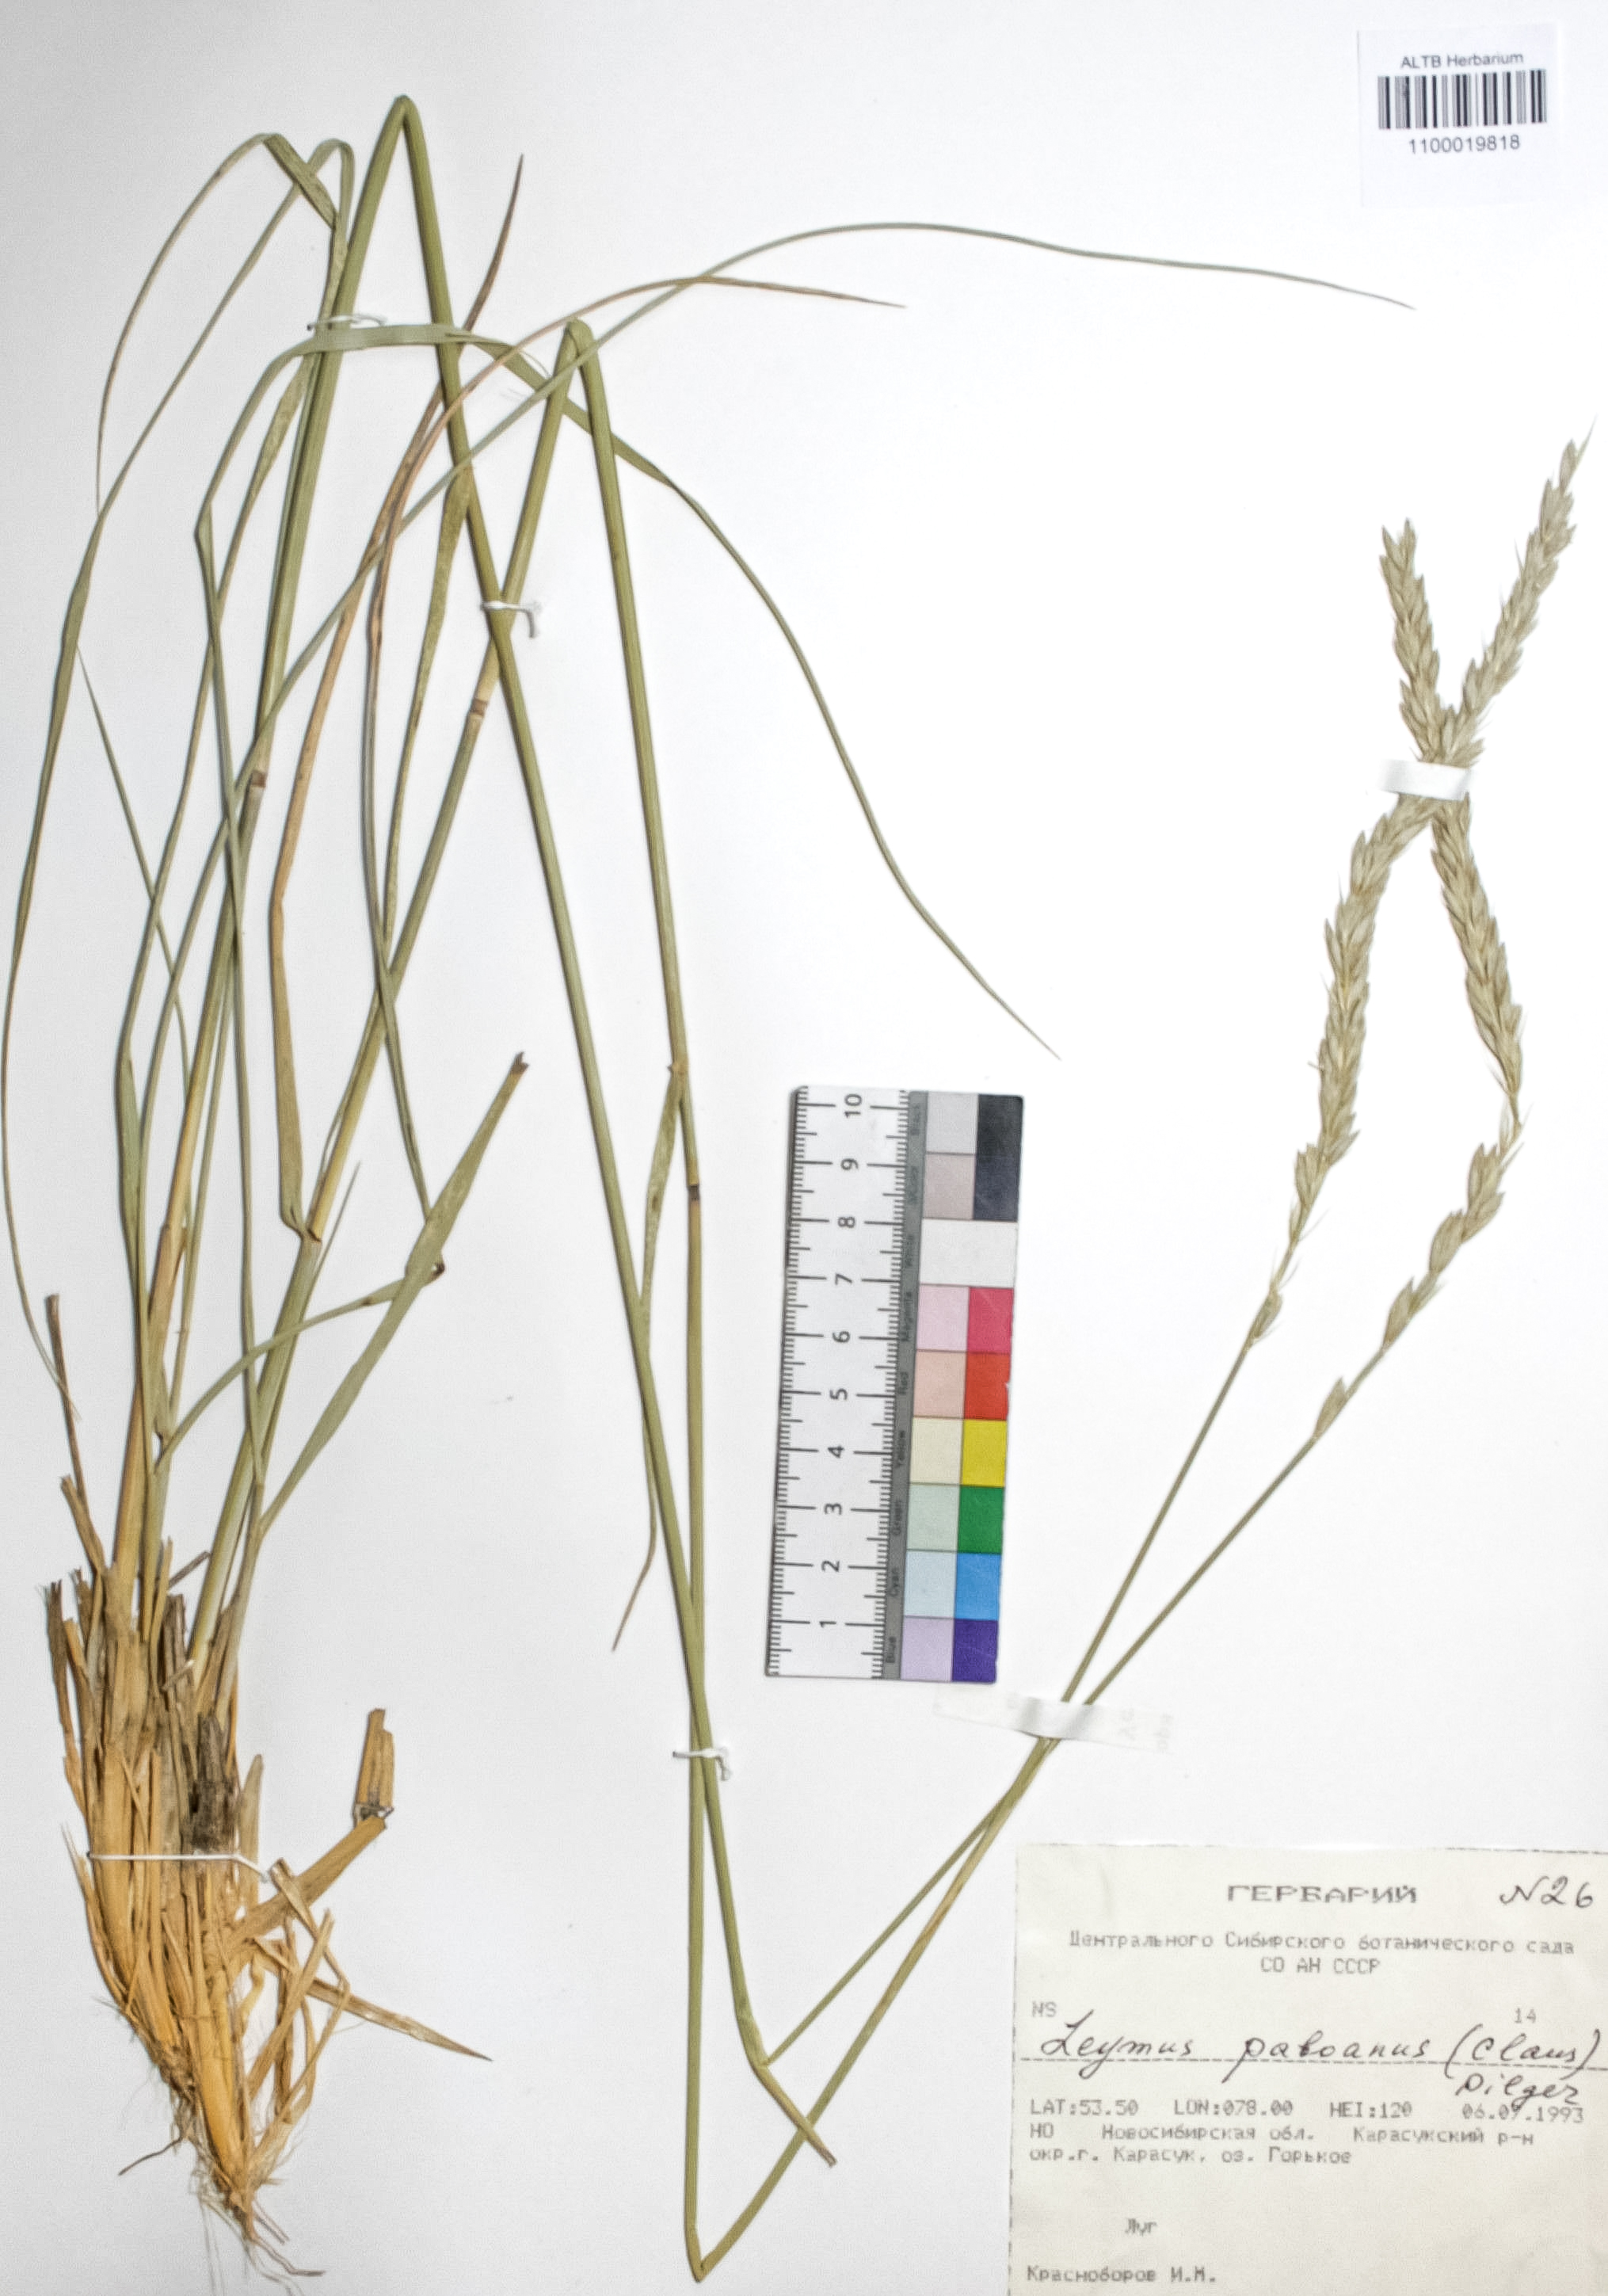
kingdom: Plantae
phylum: Tracheophyta
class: Liliopsida
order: Poales
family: Poaceae
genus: Leymus
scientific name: Leymus paboanus
